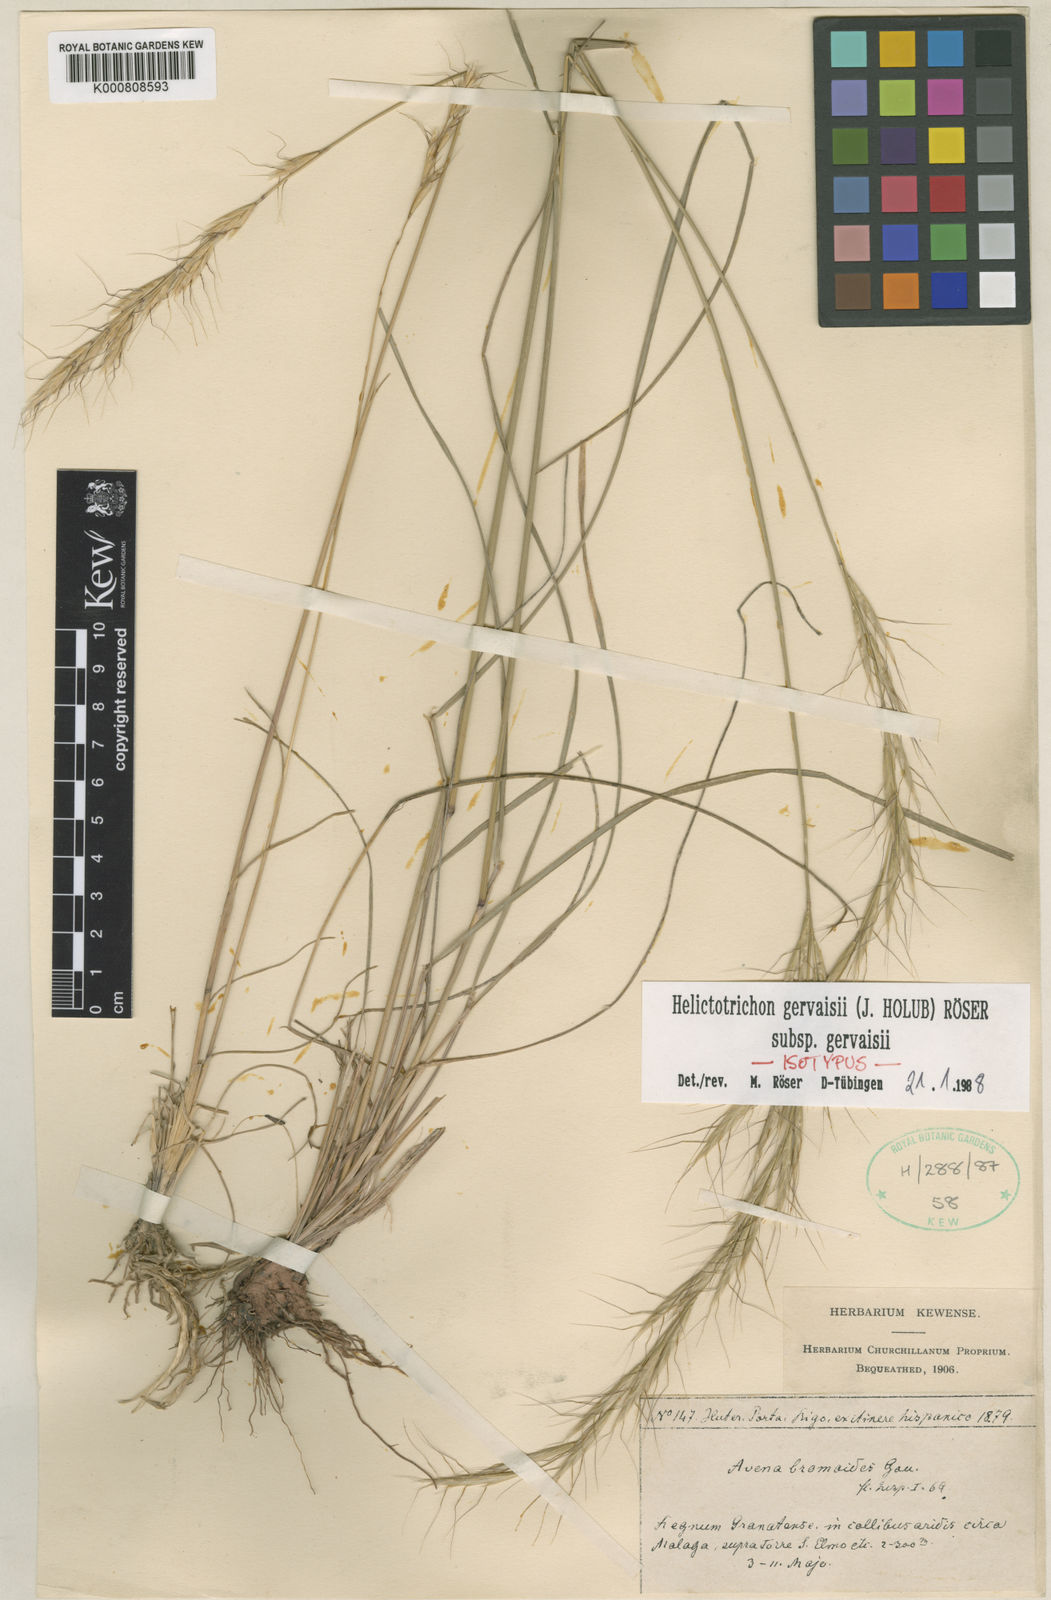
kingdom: Plantae
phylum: Tracheophyta
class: Liliopsida
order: Poales
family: Poaceae
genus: Helictotrichon
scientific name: Helictotrichon
